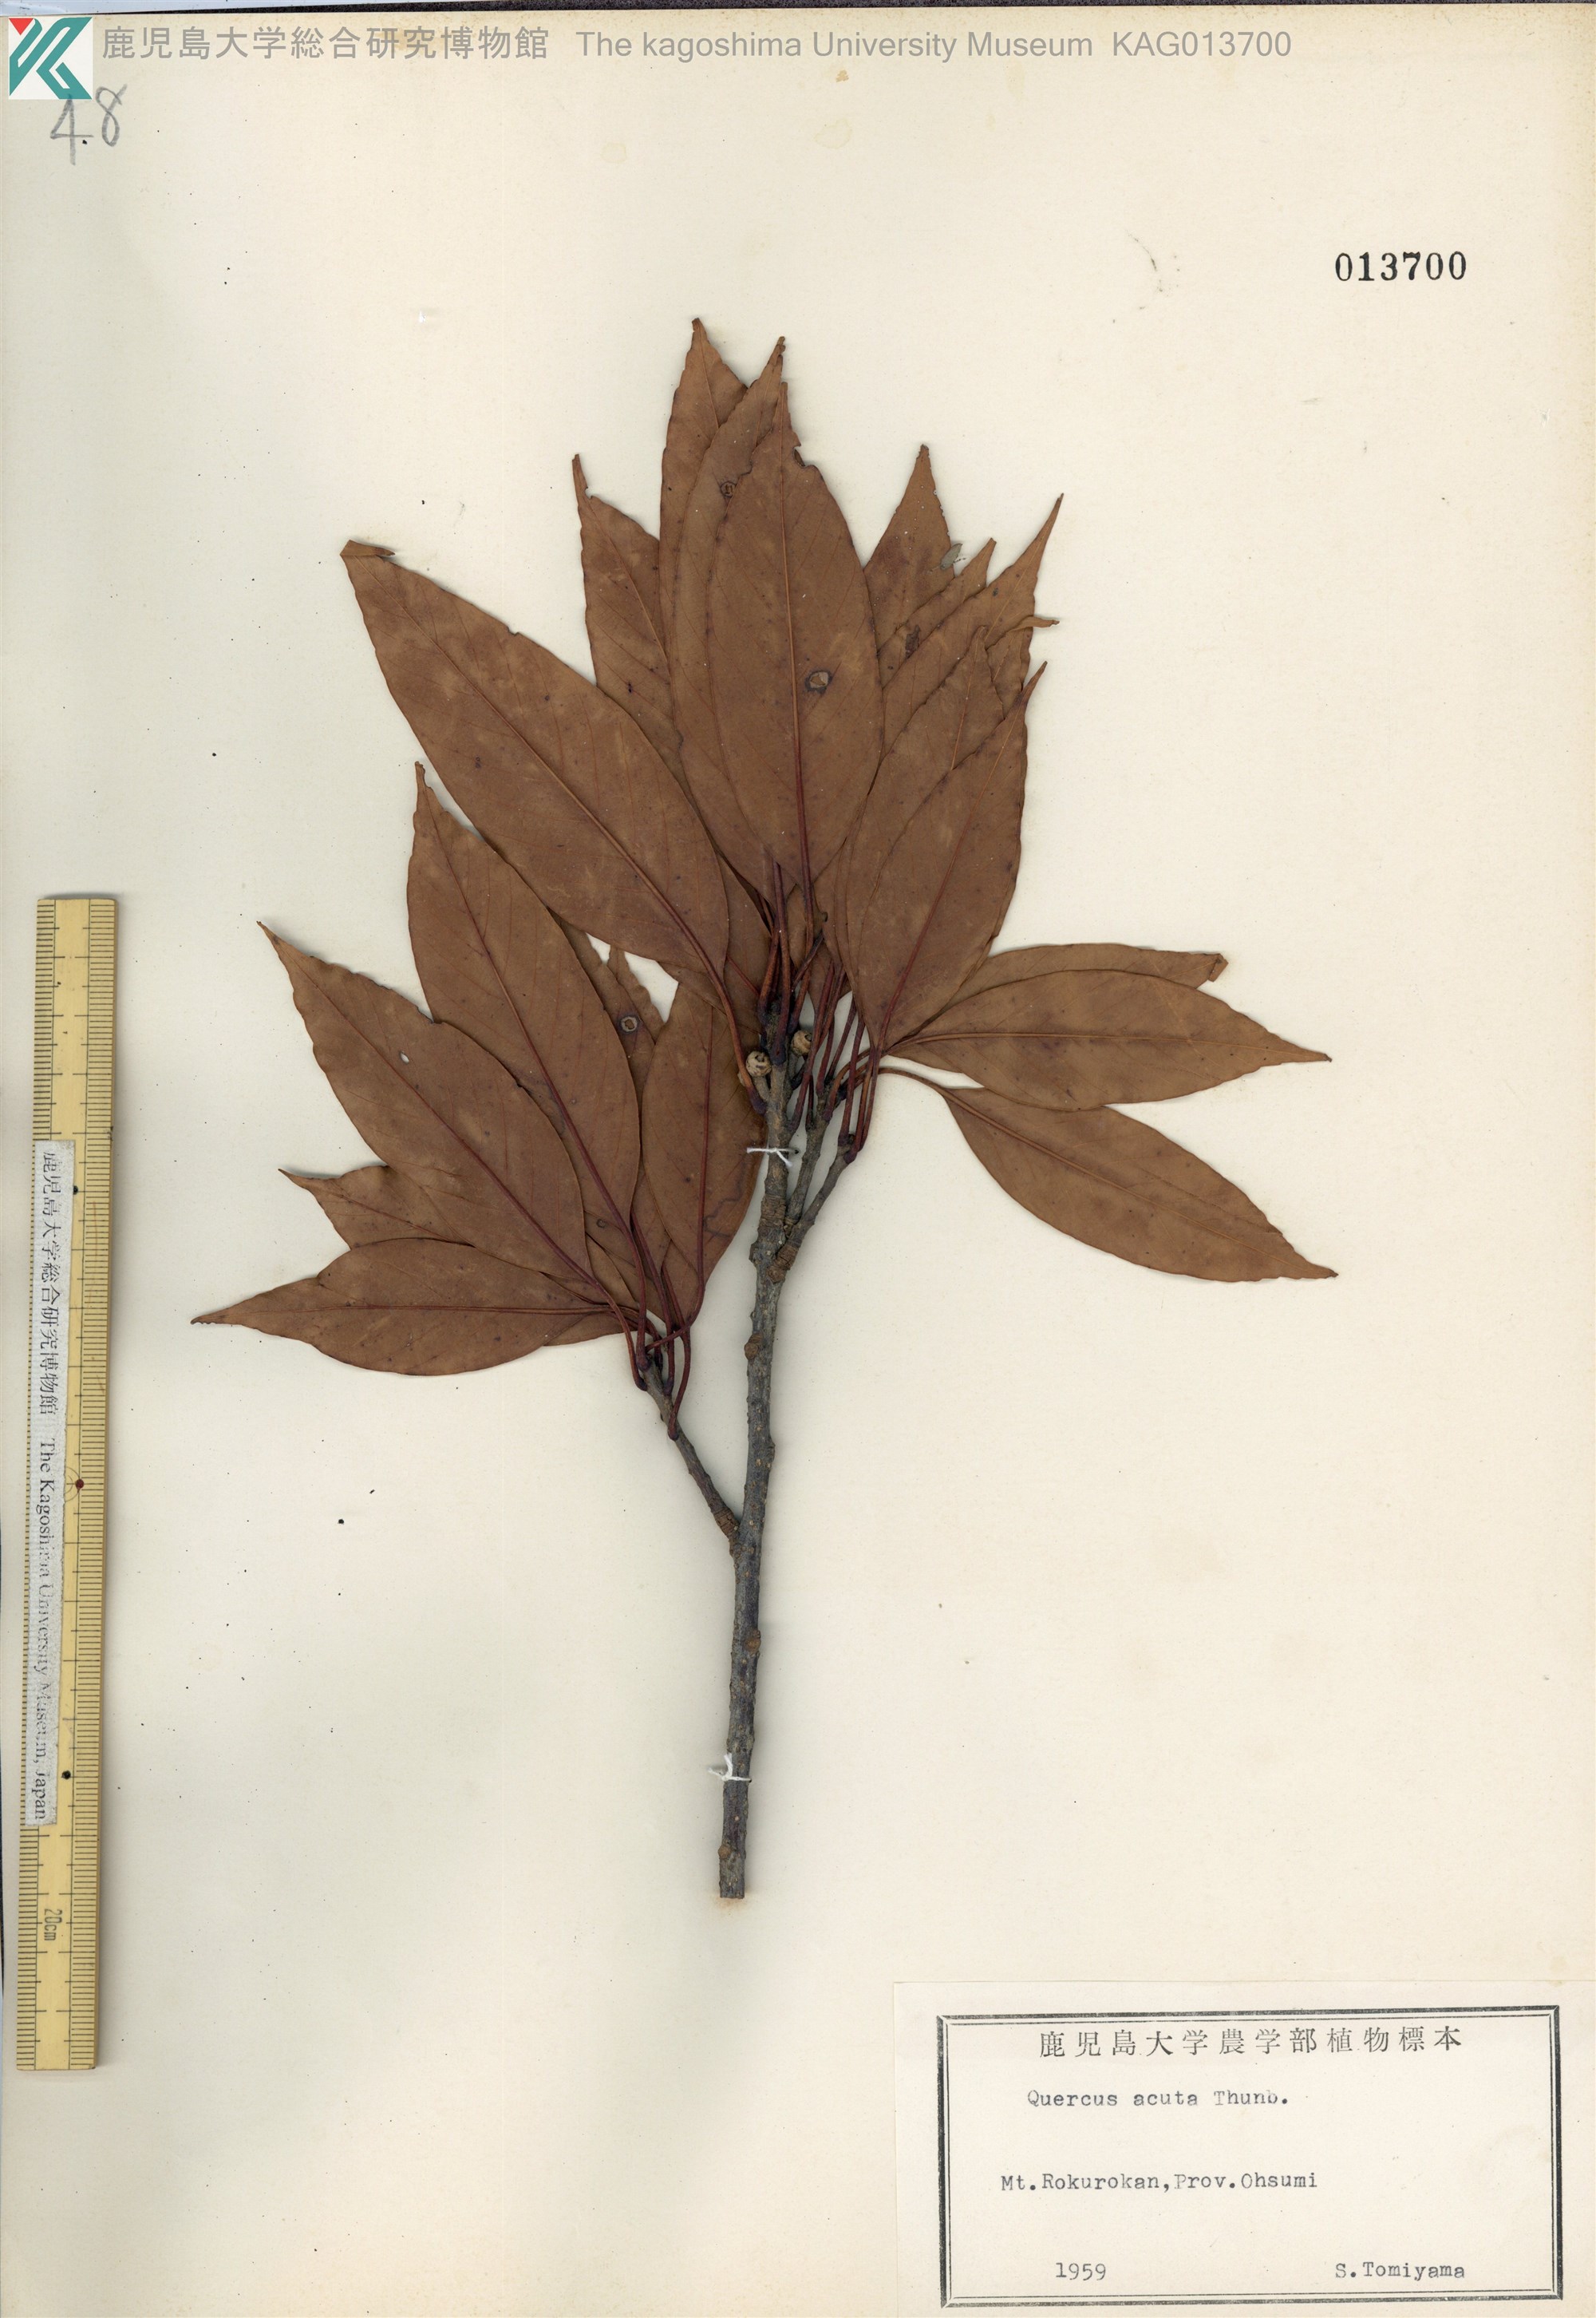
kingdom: Plantae
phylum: Tracheophyta
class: Magnoliopsida
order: Fagales
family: Fagaceae
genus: Quercus
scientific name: Quercus acuta
